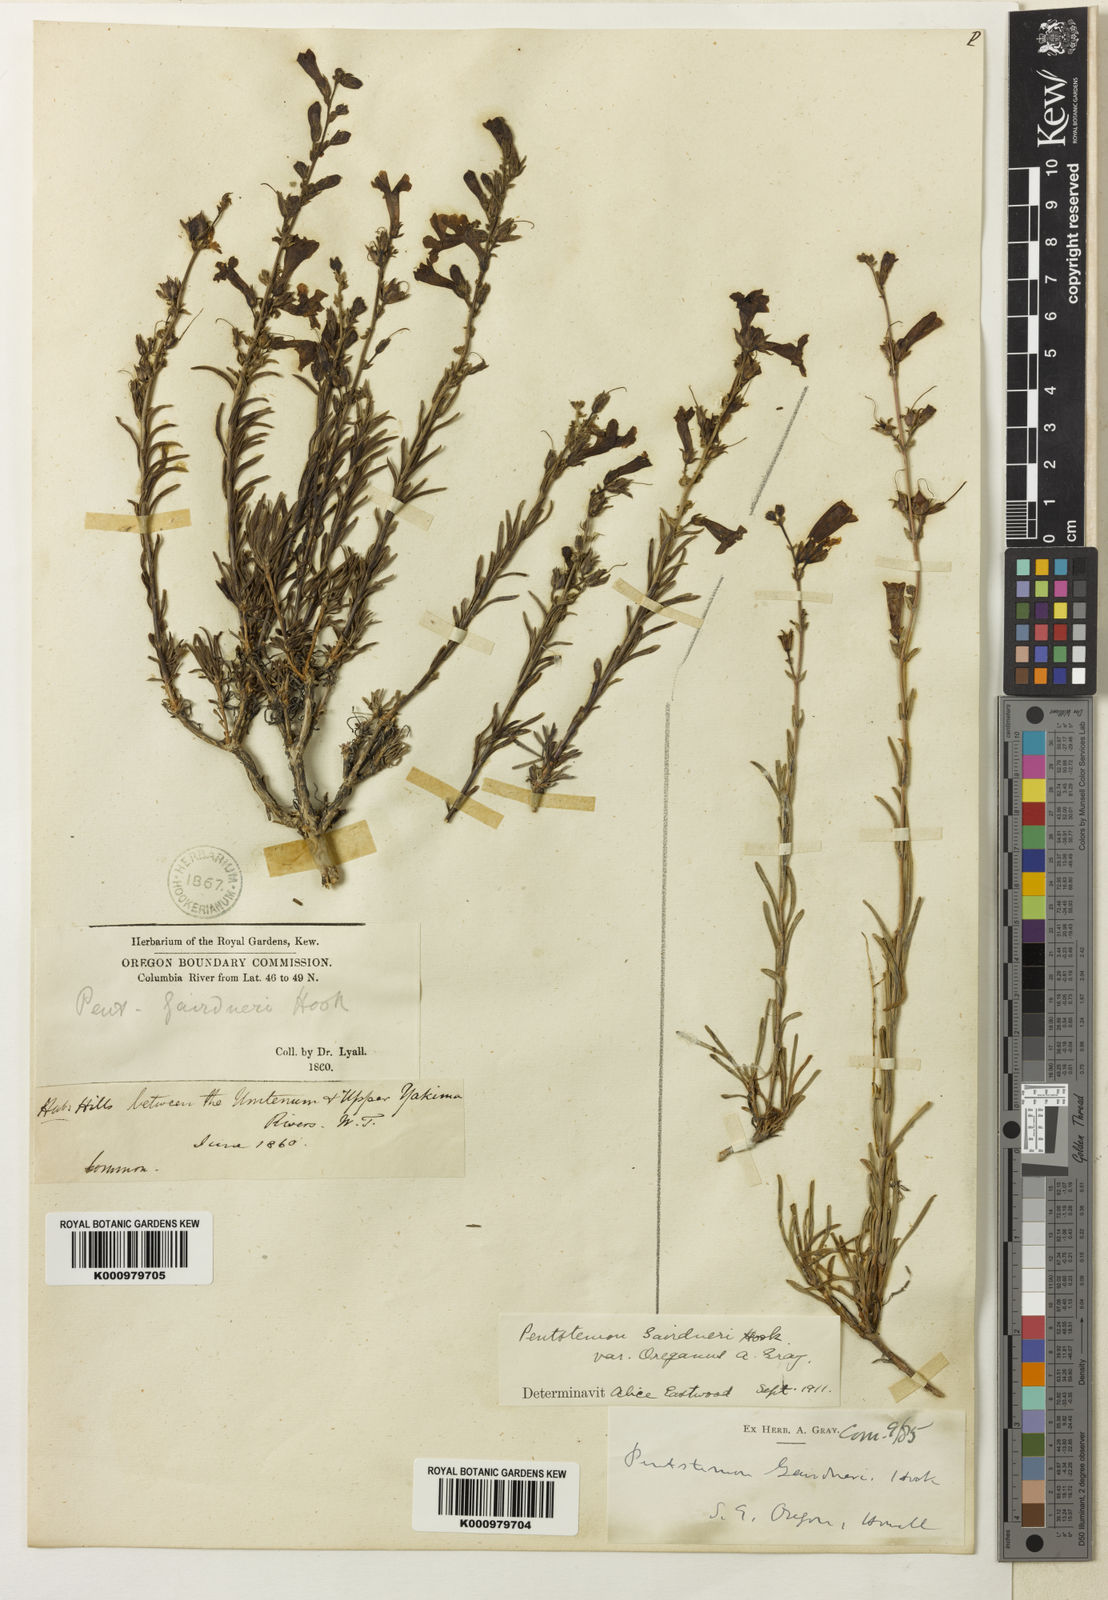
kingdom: Plantae
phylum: Tracheophyta
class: Magnoliopsida
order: Lamiales
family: Plantaginaceae
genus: Penstemon
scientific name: Penstemon gairdneri
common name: Gairdner's penstemon
